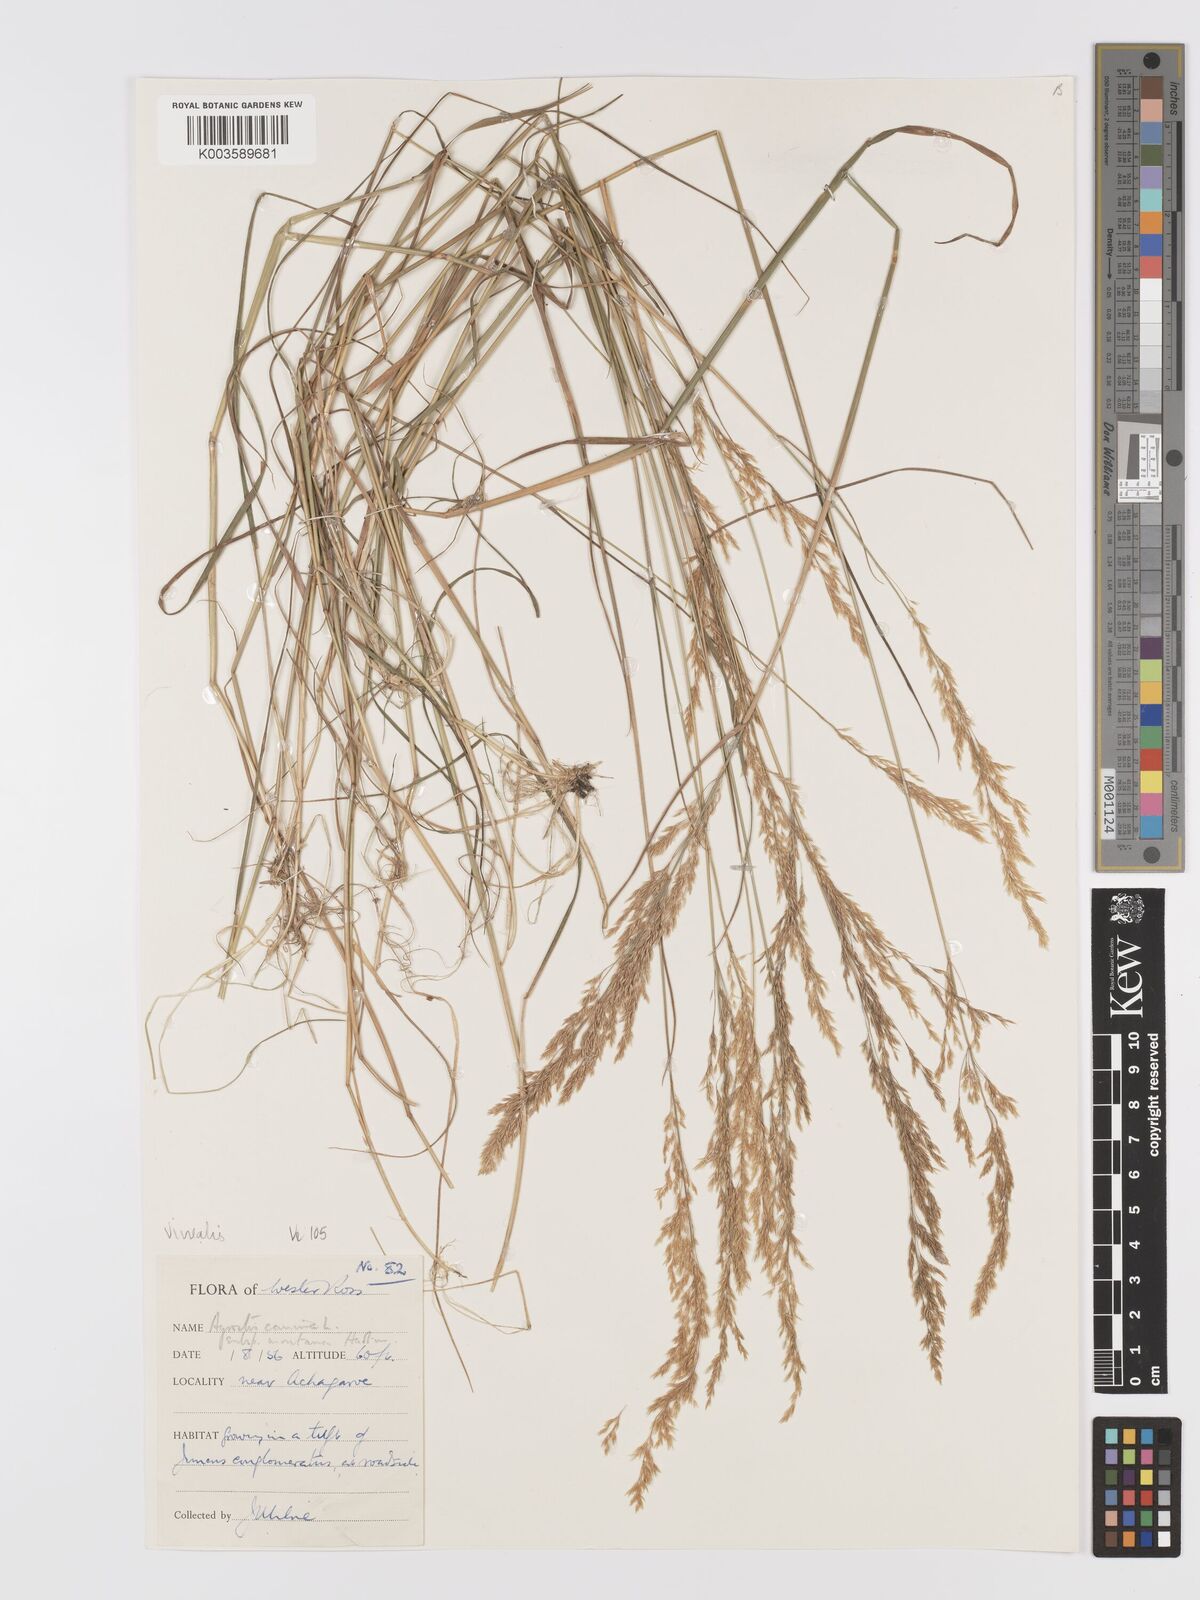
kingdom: Plantae
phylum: Tracheophyta
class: Liliopsida
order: Poales
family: Poaceae
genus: Agrostis
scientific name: Agrostis
